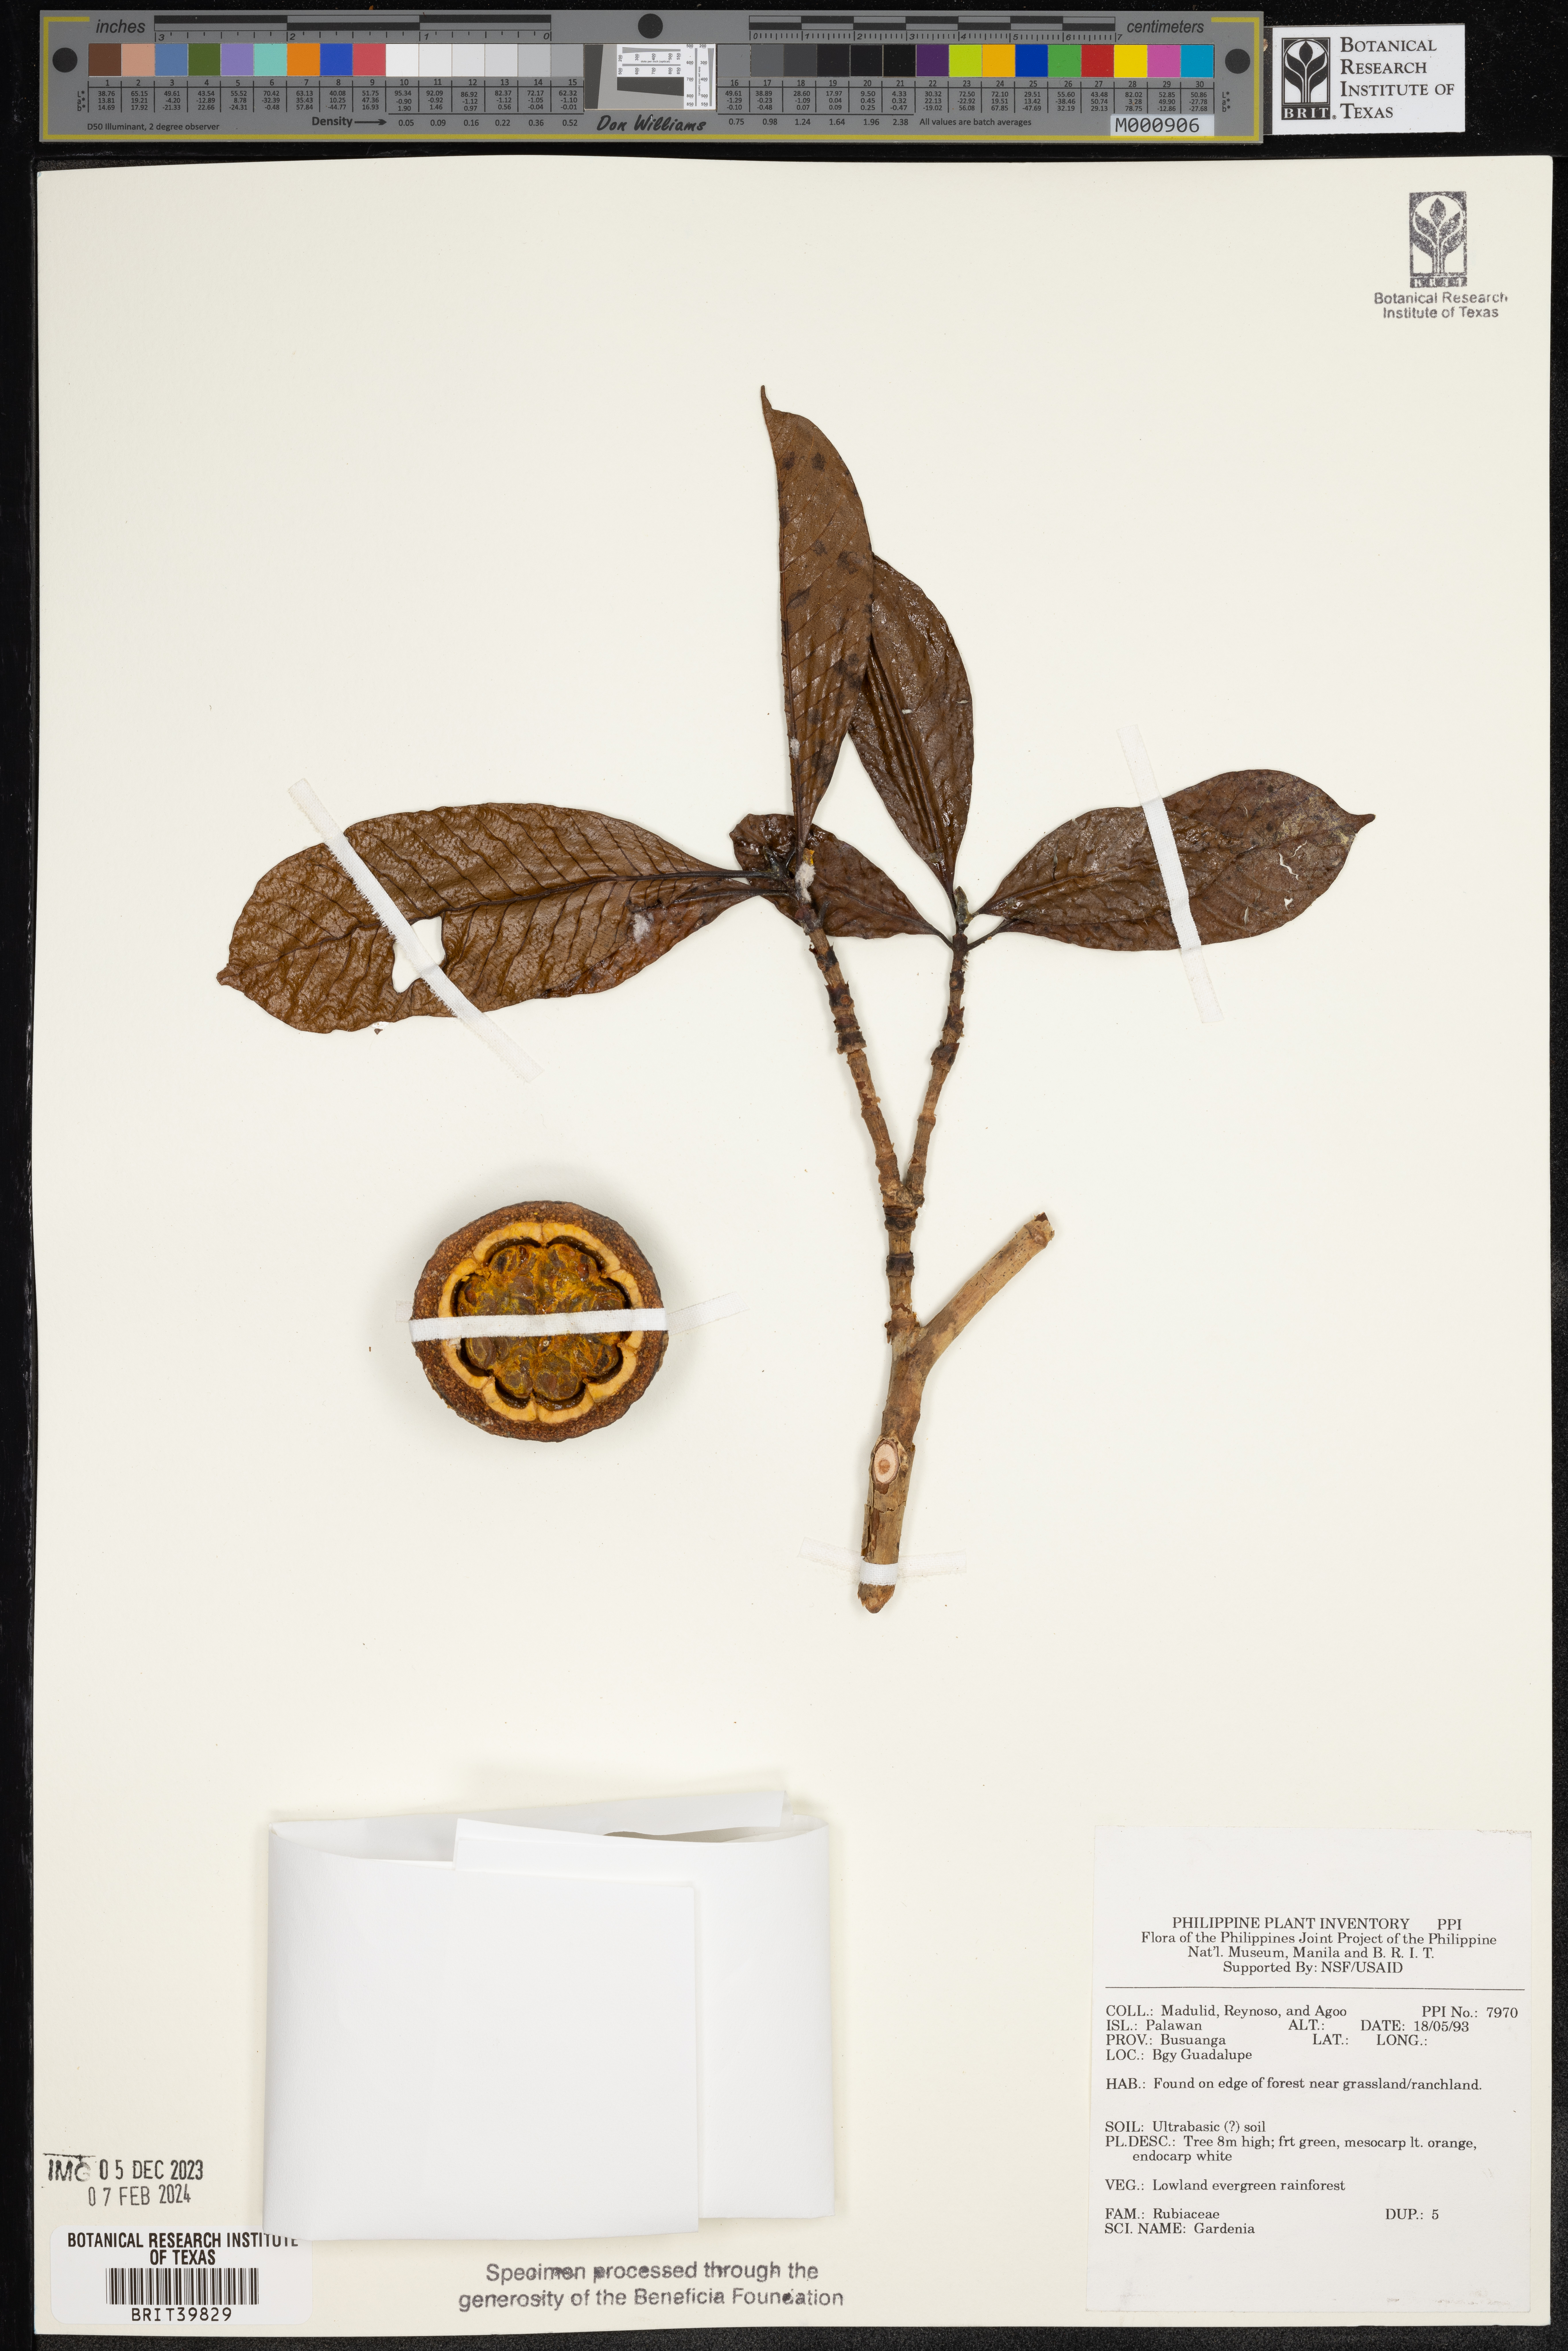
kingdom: Plantae
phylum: Tracheophyta
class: Magnoliopsida
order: Gentianales
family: Rubiaceae
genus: Gardenia
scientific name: Gardenia
